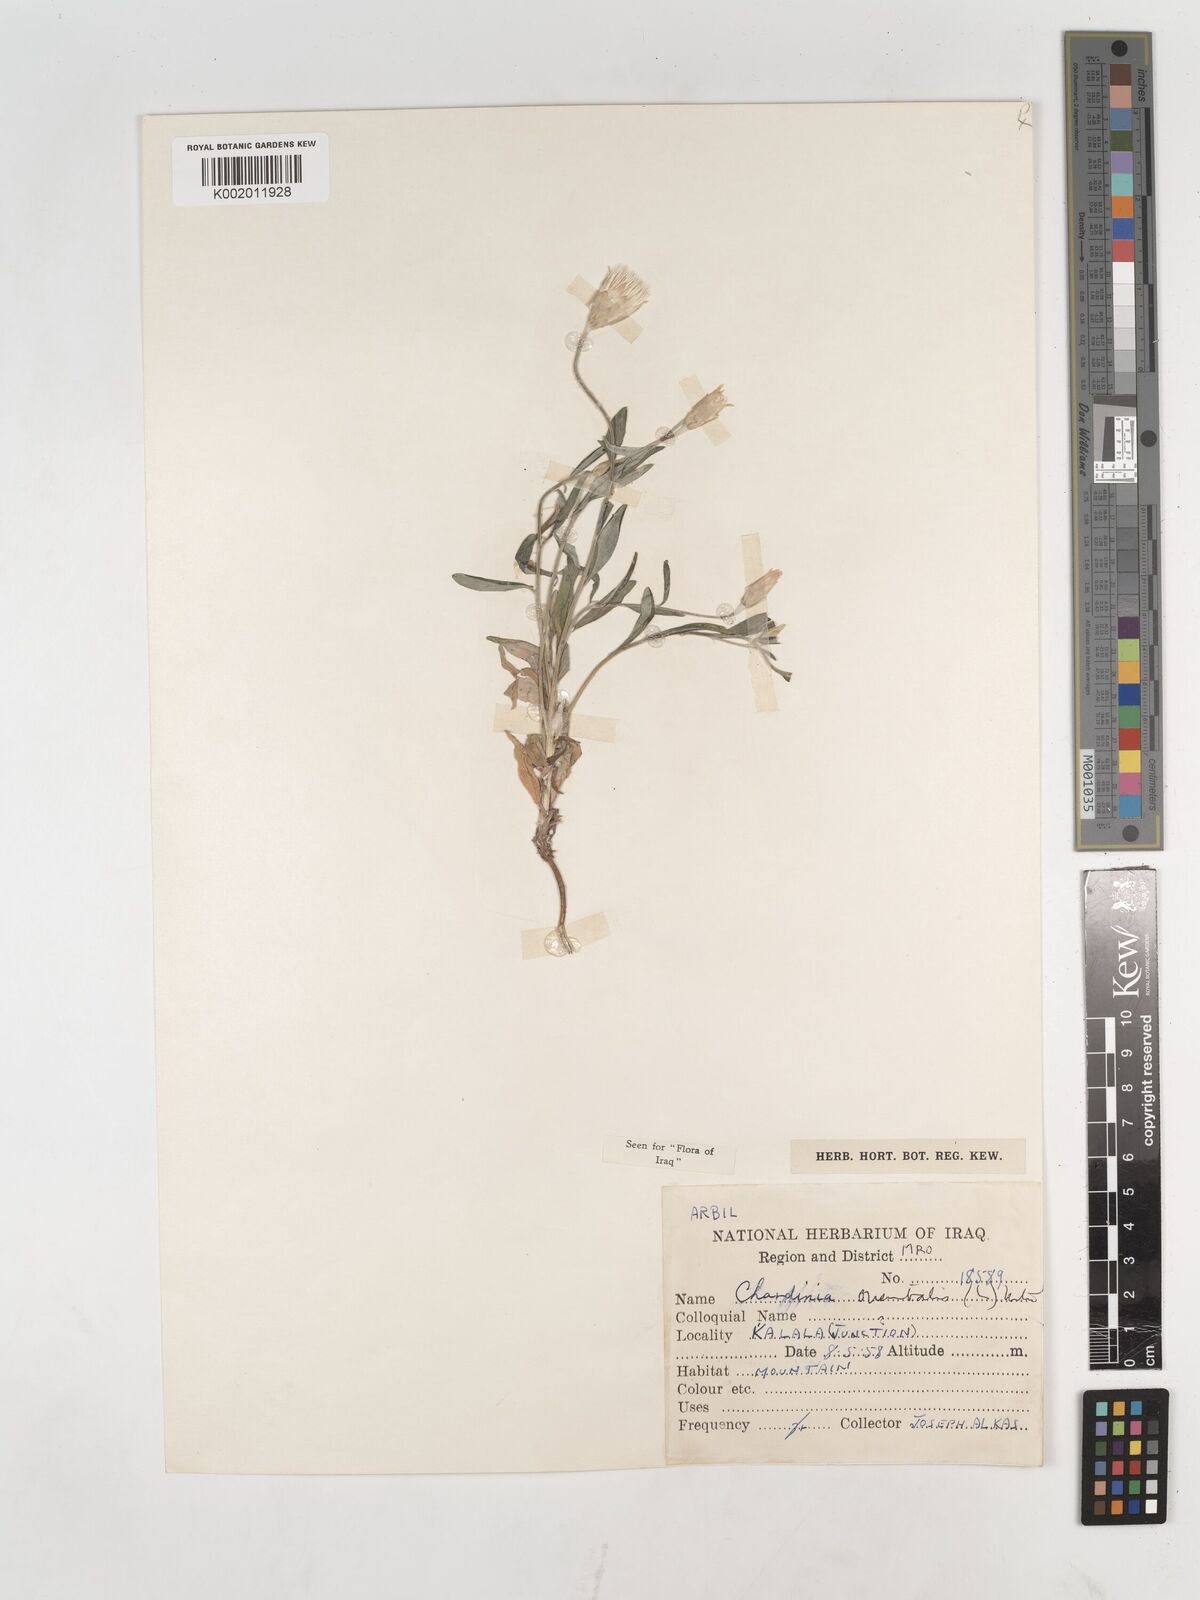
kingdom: Plantae
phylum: Tracheophyta
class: Magnoliopsida
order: Asterales
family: Asteraceae
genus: Chardinia
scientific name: Chardinia orientalis
